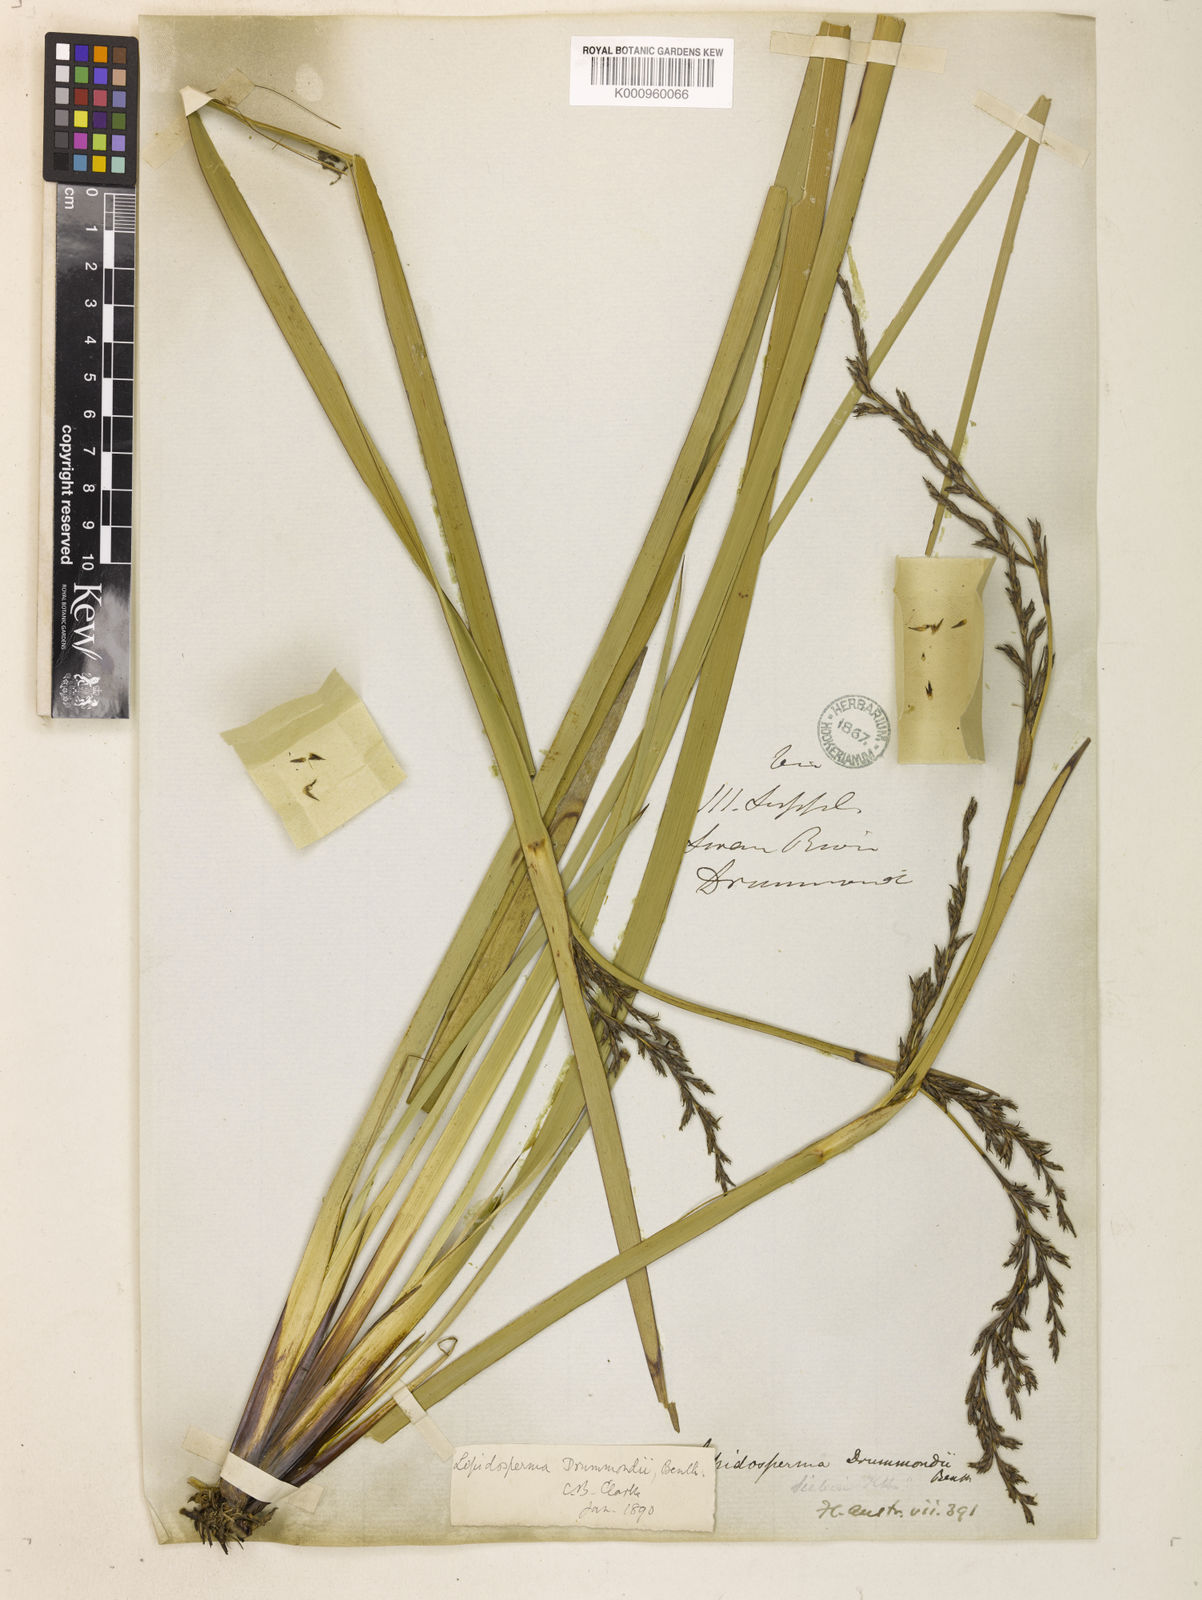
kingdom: Plantae
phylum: Tracheophyta
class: Liliopsida
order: Poales
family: Cyperaceae
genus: Lepidosperma
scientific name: Lepidosperma drummondii
